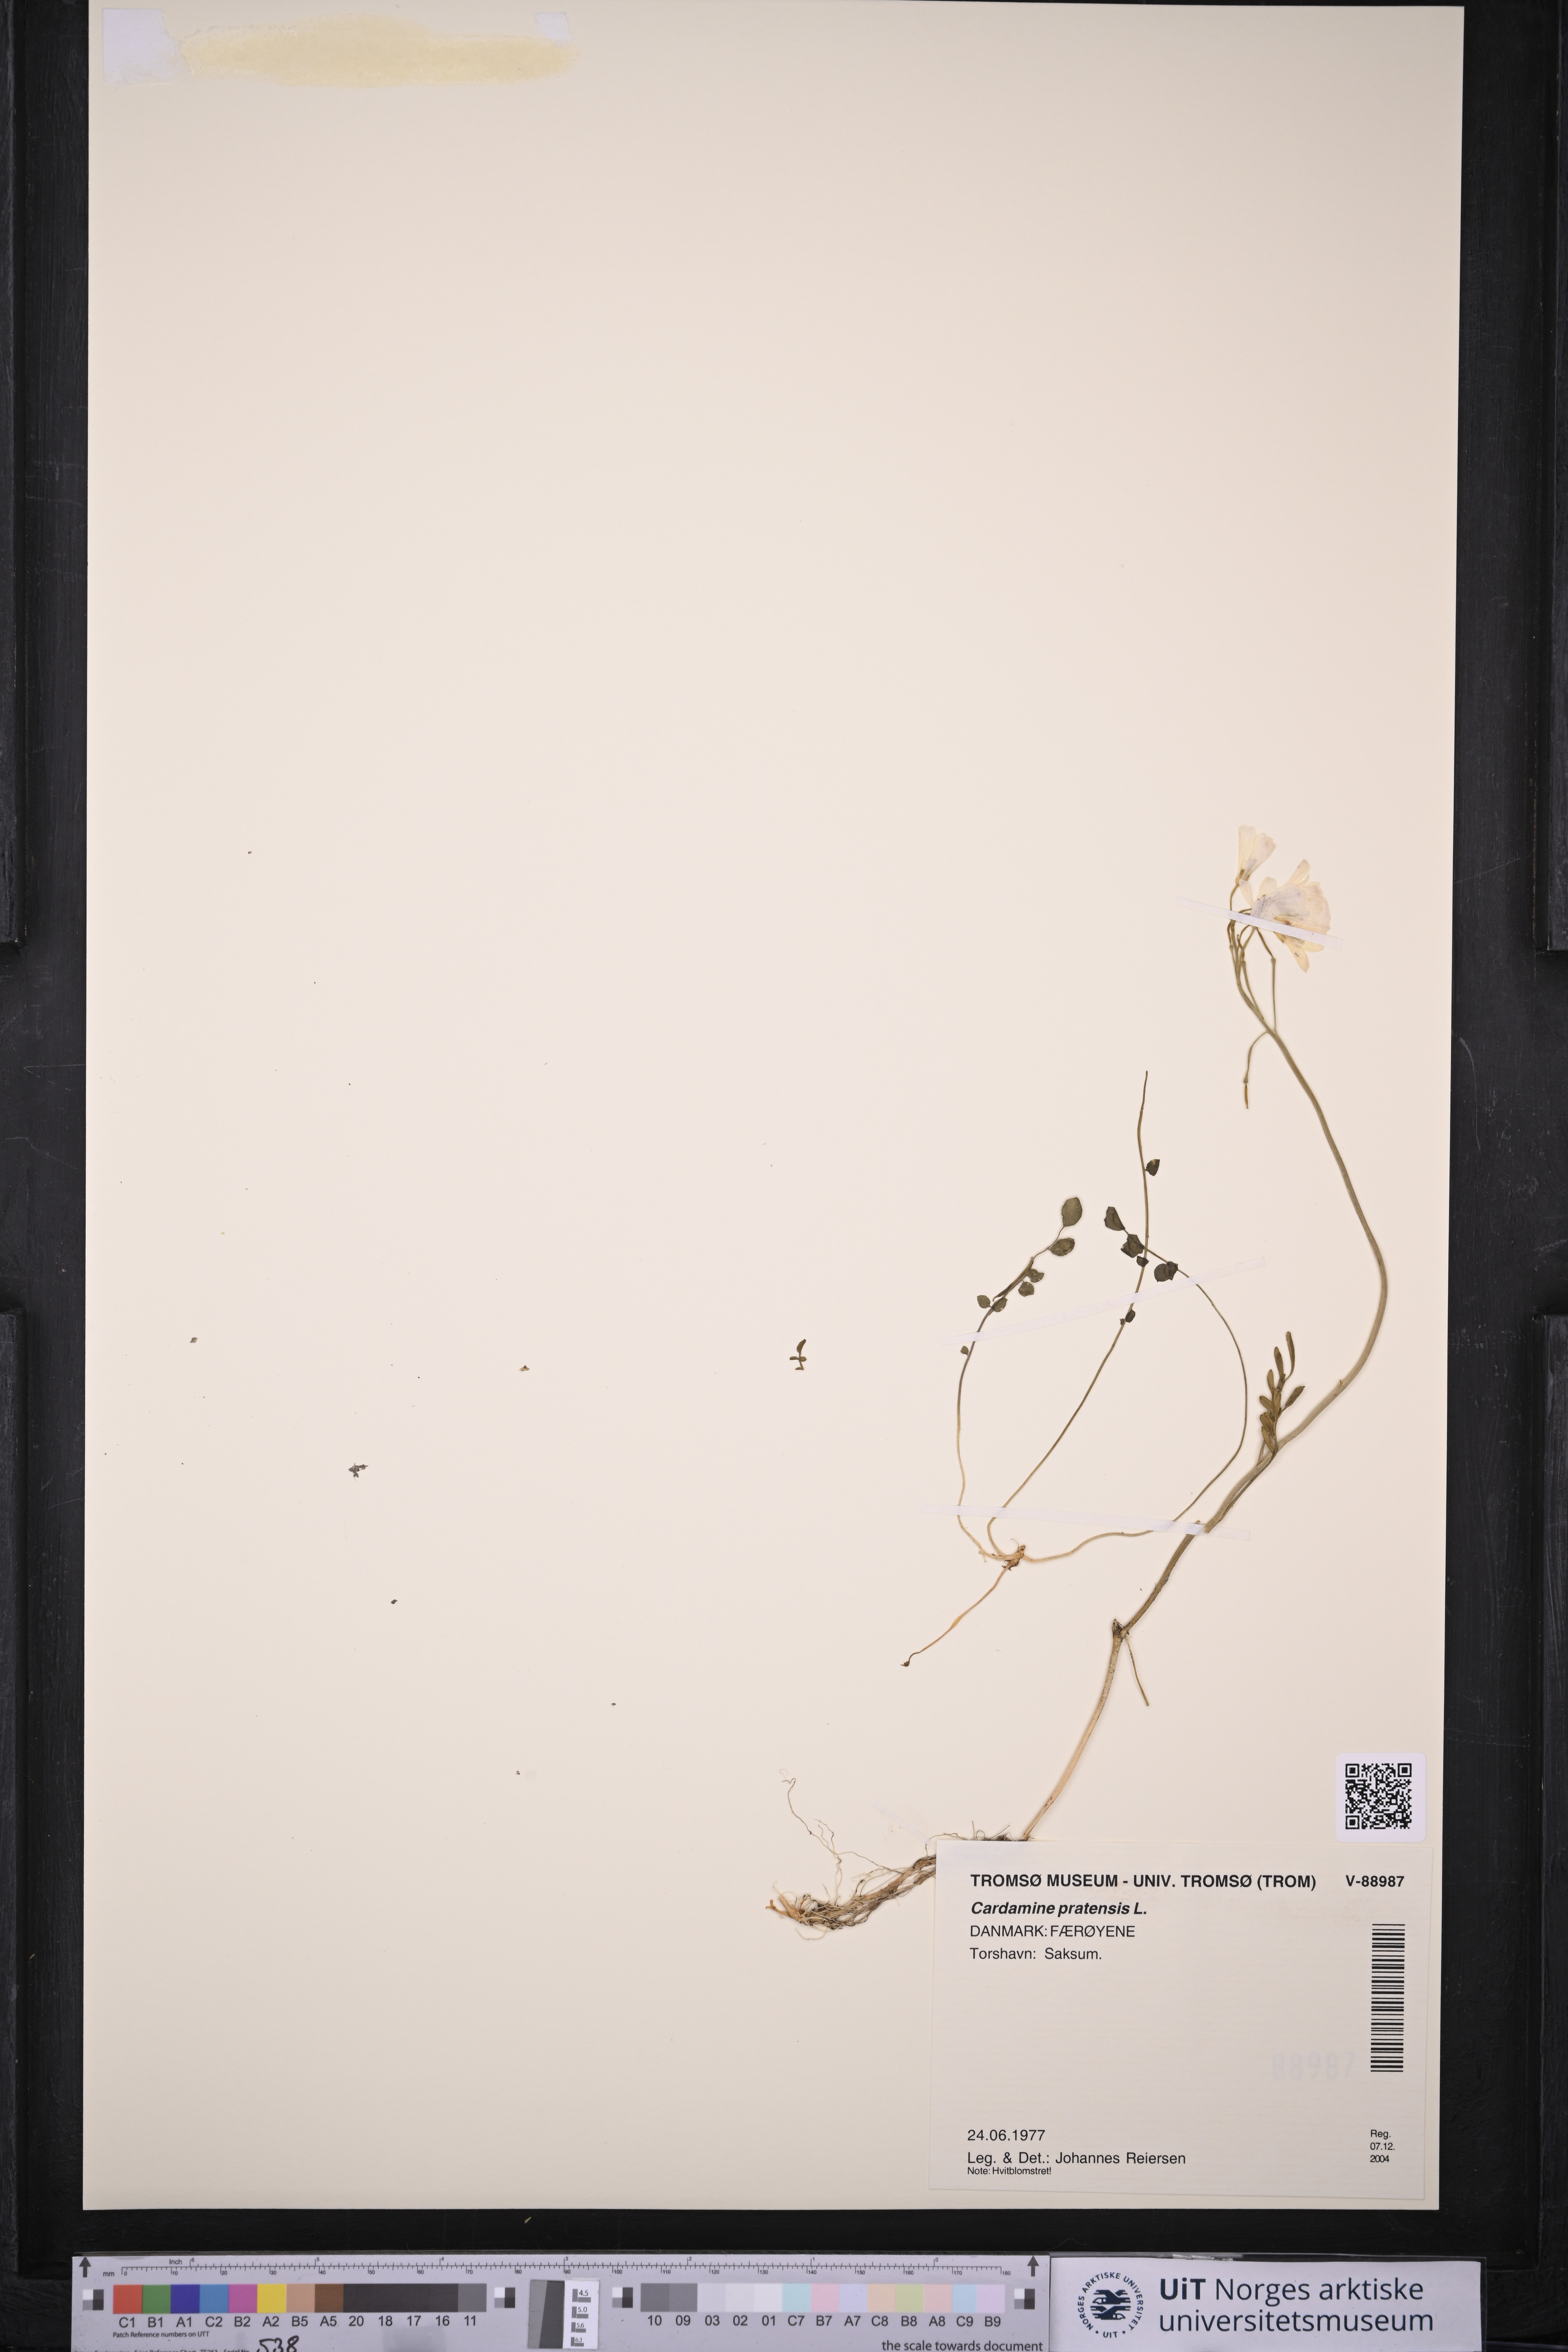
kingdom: Plantae
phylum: Tracheophyta
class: Magnoliopsida
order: Brassicales
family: Brassicaceae
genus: Cardamine
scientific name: Cardamine pratensis
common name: Cuckoo flower
